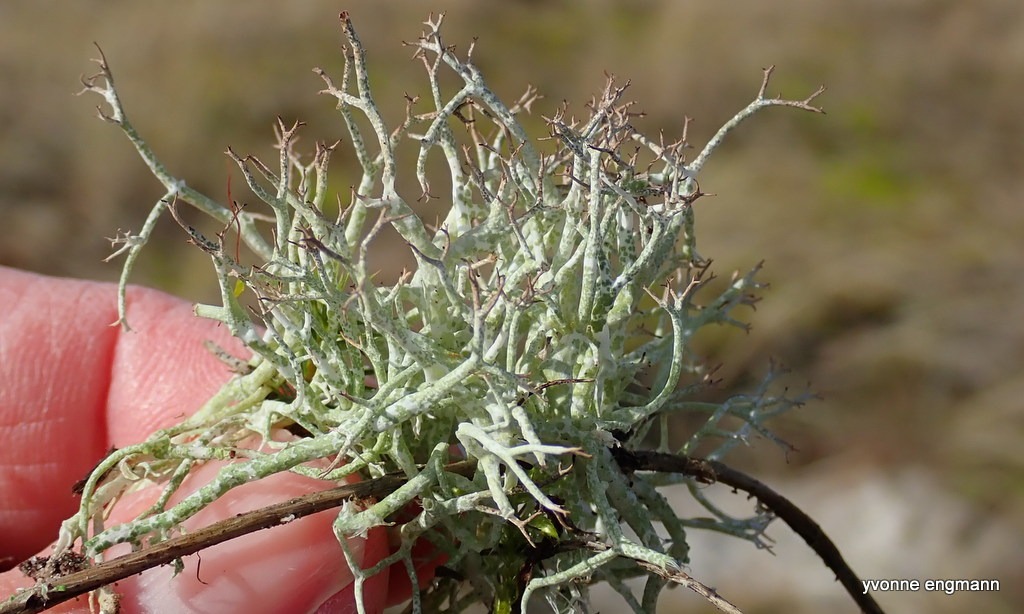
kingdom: Fungi
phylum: Ascomycota
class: Lecanoromycetes
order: Lecanorales
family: Cladoniaceae
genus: Cladonia
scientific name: Cladonia rangiformis
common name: Spættet bægerlav
